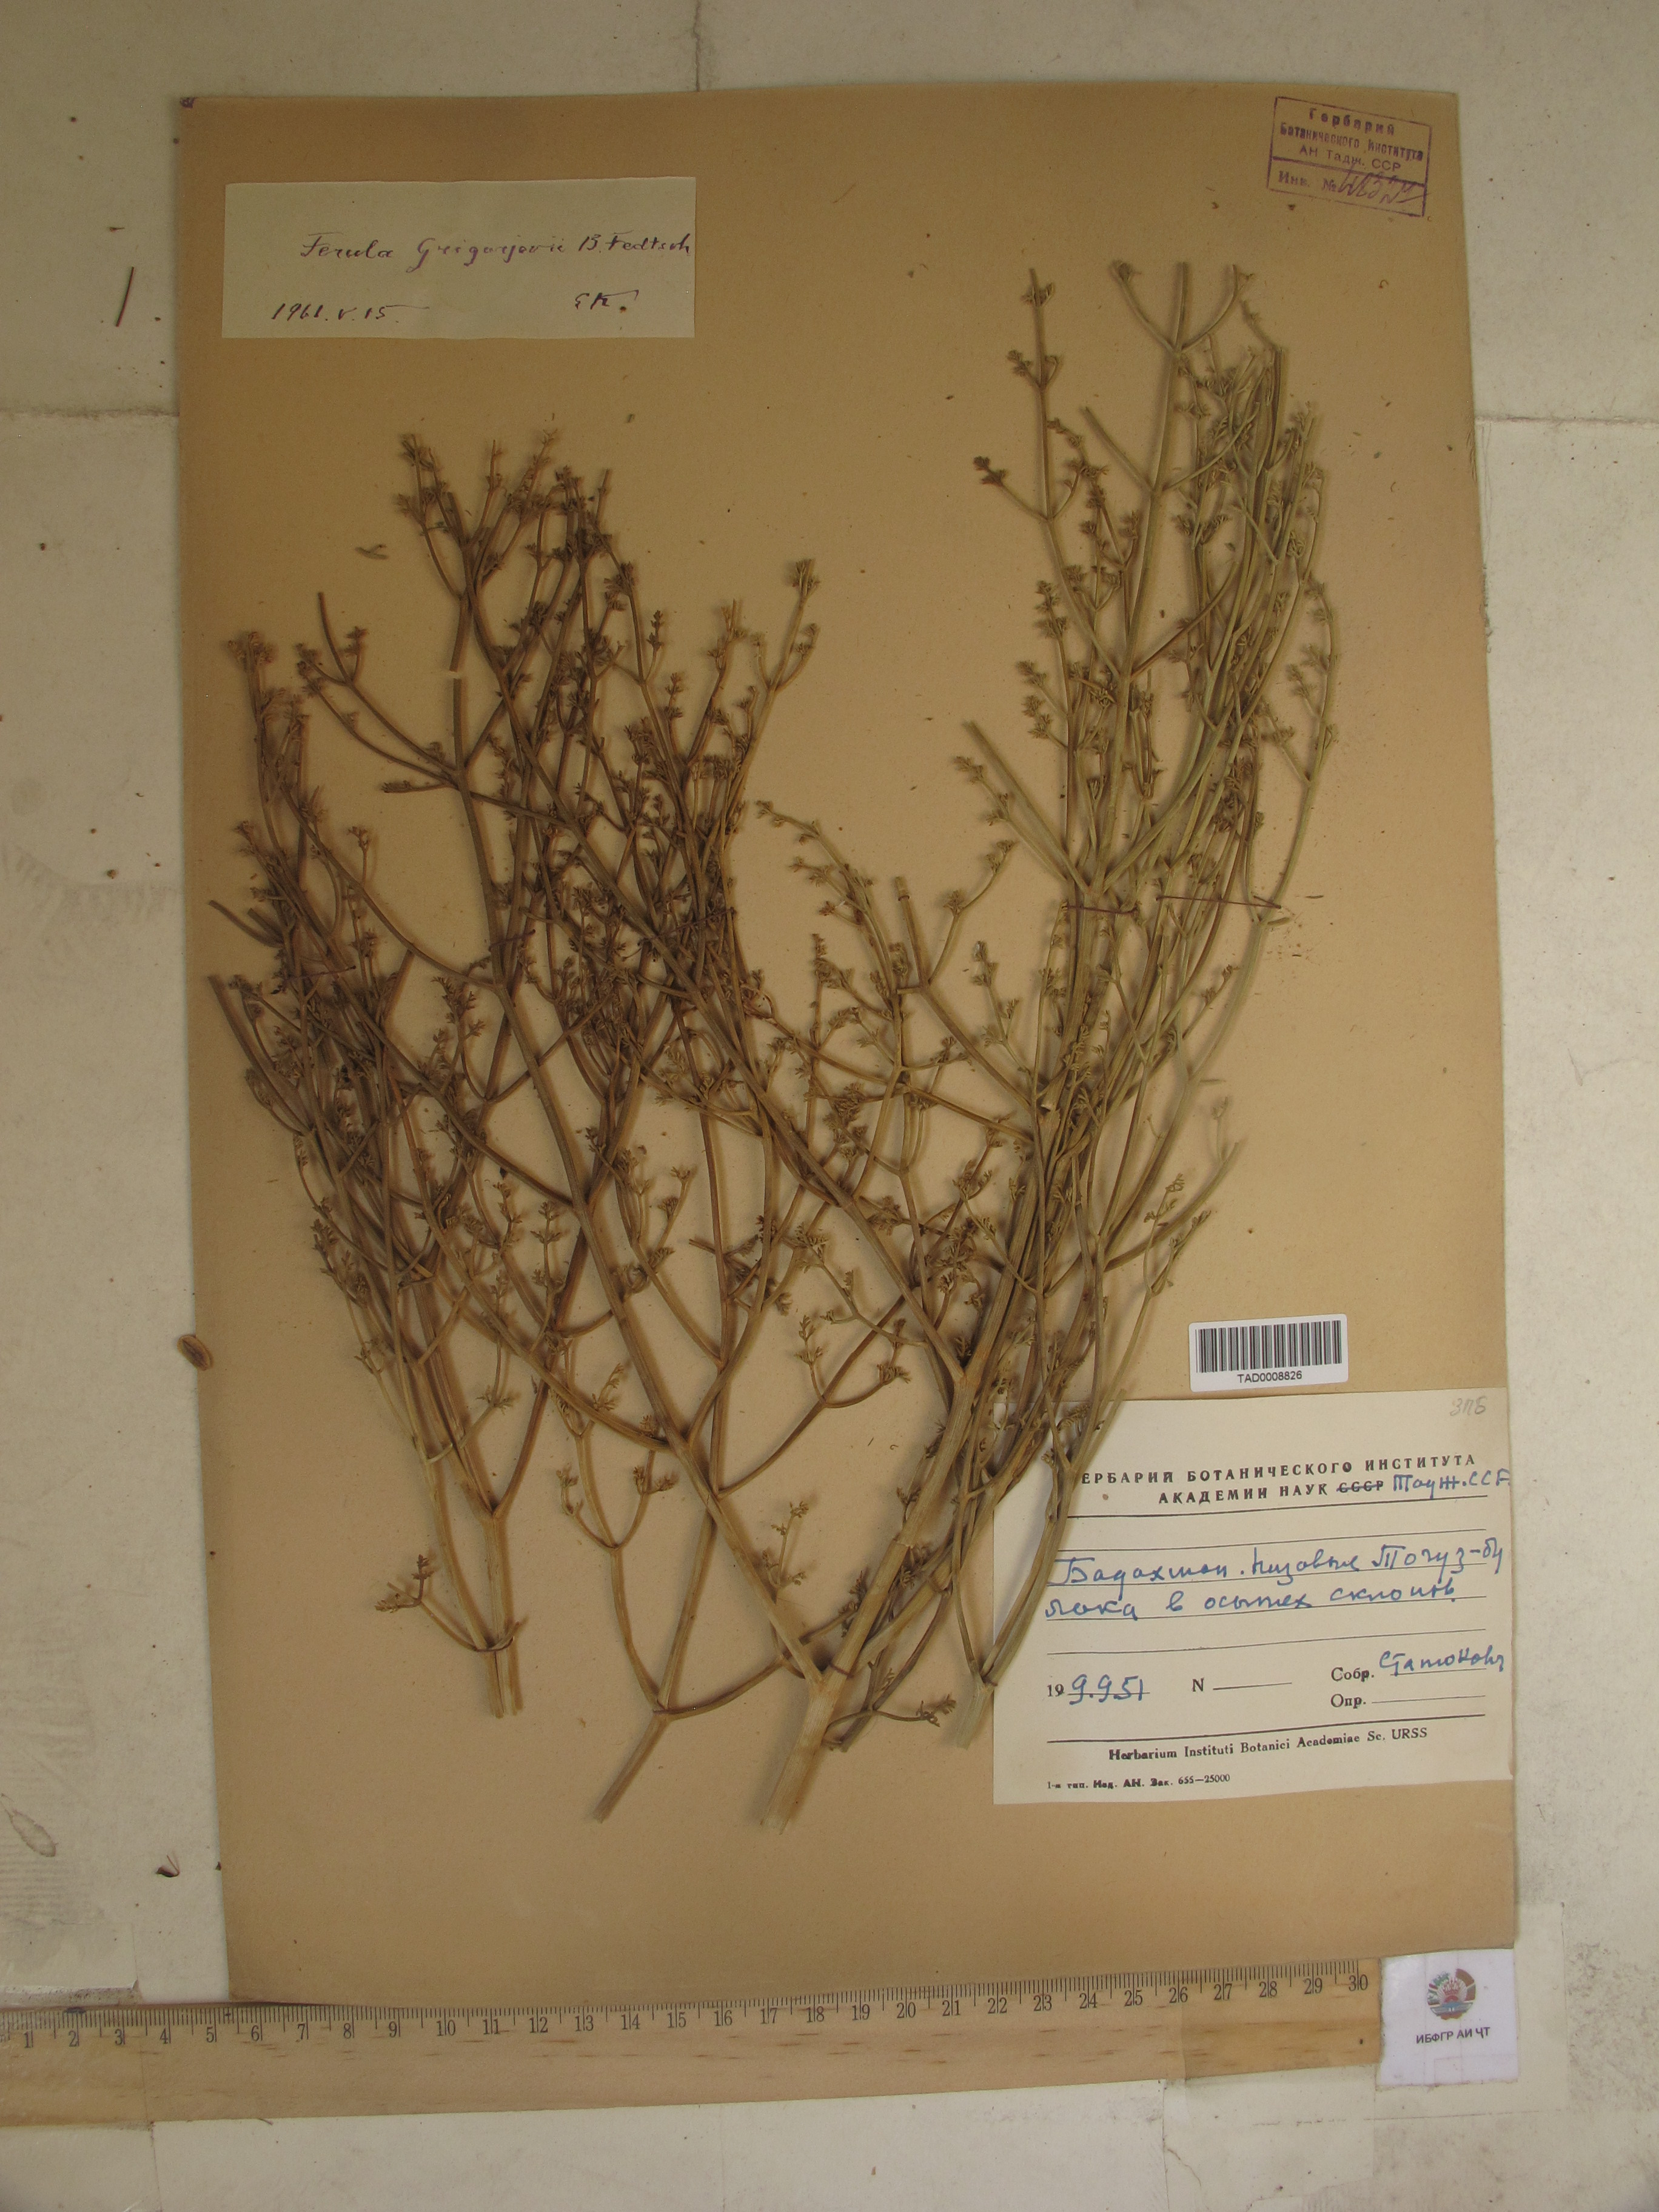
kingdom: Plantae
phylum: Tracheophyta
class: Magnoliopsida
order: Apiales
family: Apiaceae
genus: Ferula
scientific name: Ferula grigoriewii
